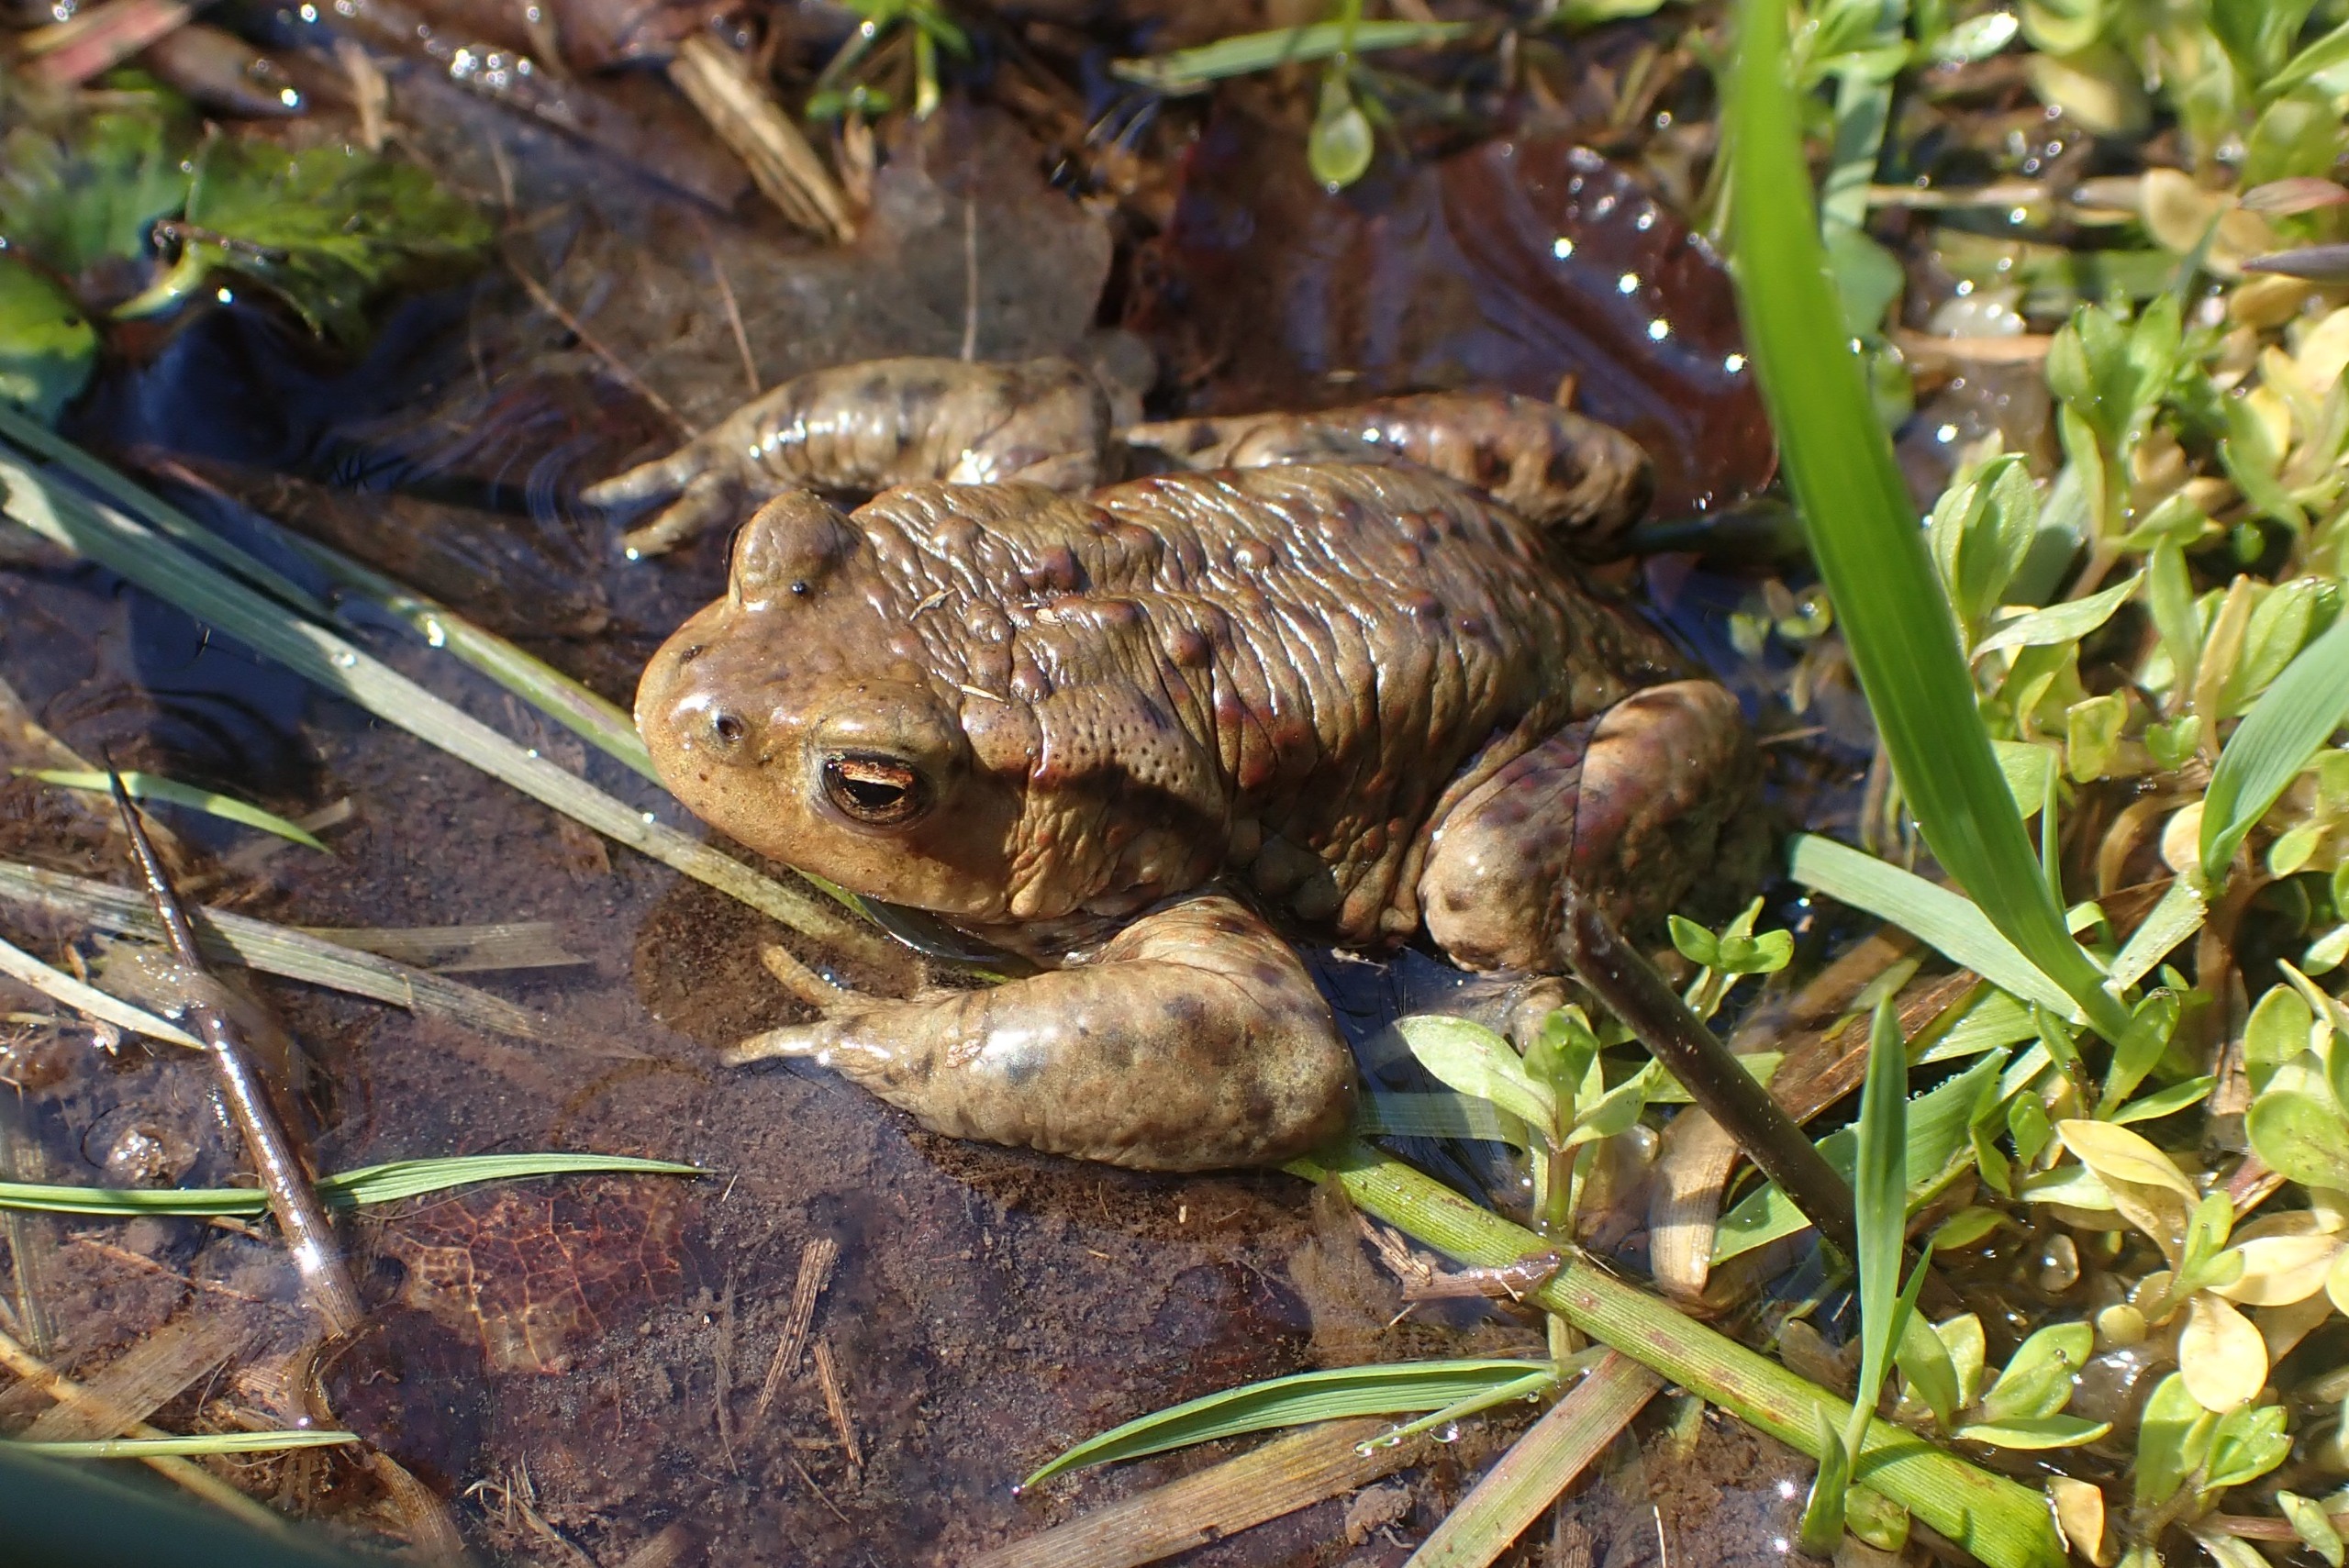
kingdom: Animalia
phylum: Chordata
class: Amphibia
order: Anura
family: Bufonidae
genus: Bufo
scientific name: Bufo bufo
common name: Skrubtudse
